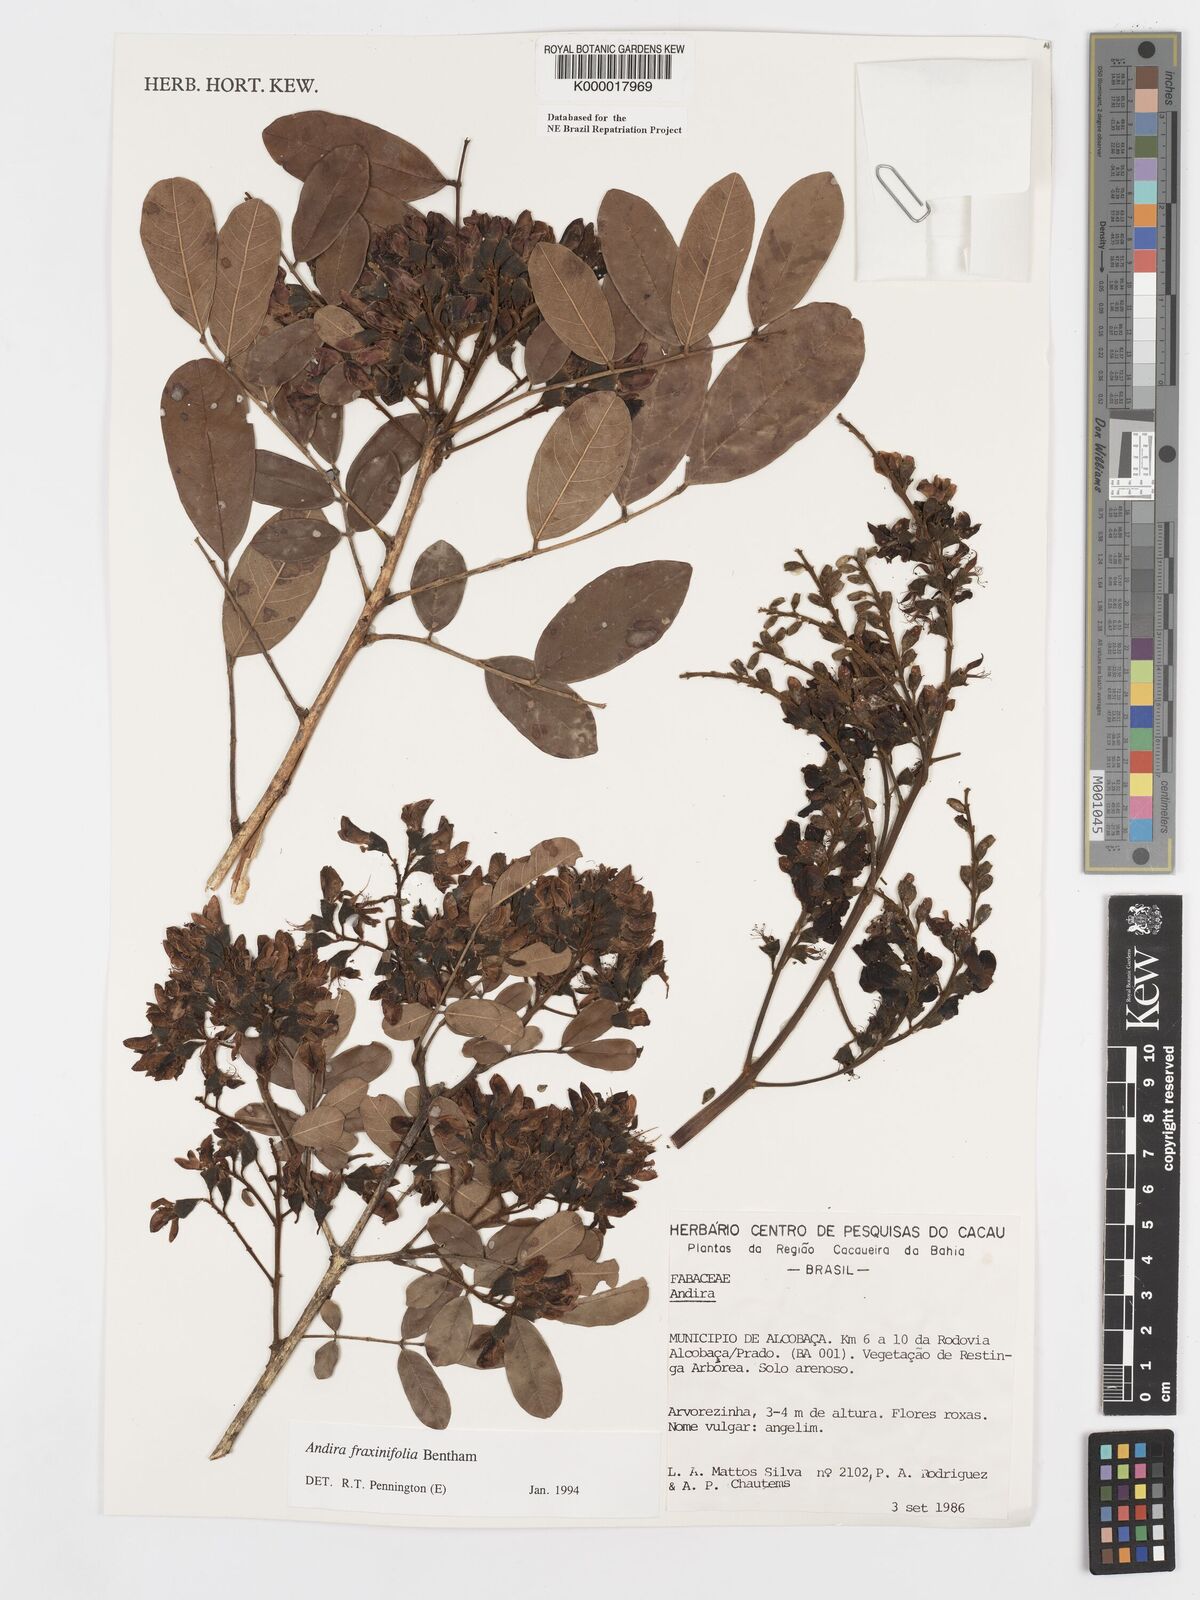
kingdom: Plantae
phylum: Tracheophyta
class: Magnoliopsida
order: Fabales
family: Fabaceae
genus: Andira
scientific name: Andira fraxinifolia
